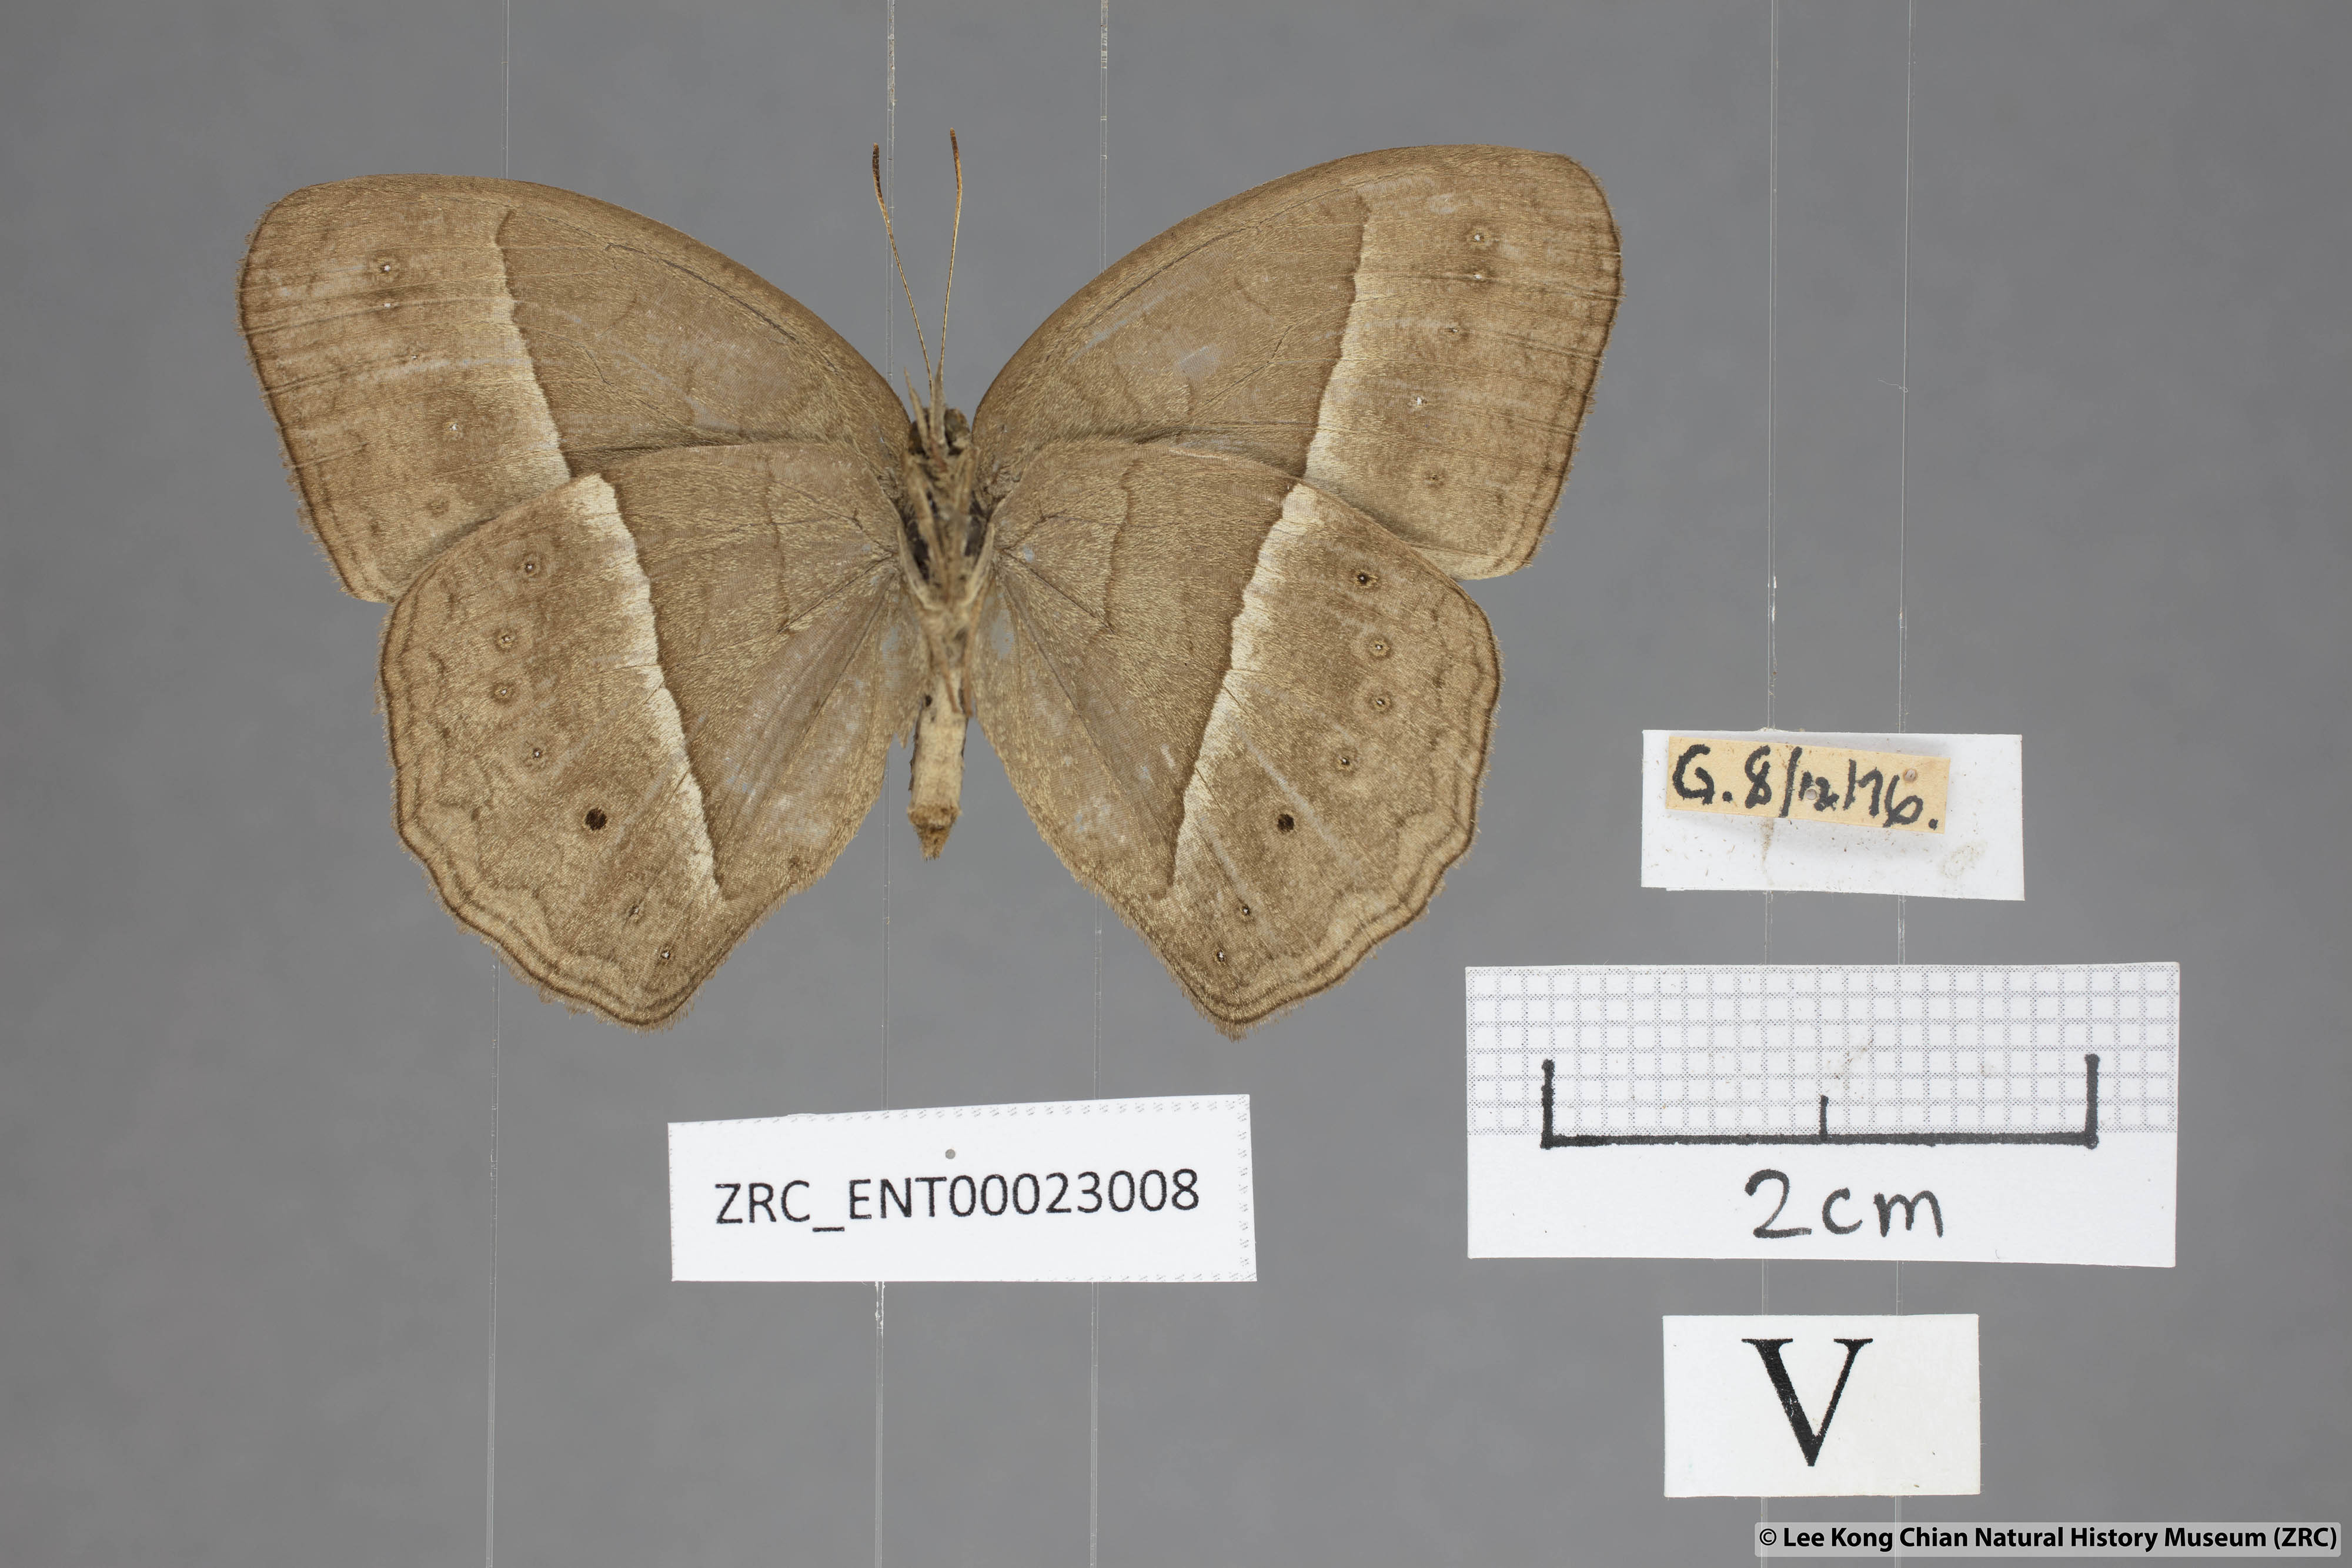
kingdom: Animalia
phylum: Arthropoda
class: Insecta
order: Lepidoptera
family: Nymphalidae
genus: Mycalesis
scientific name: Mycalesis visala
